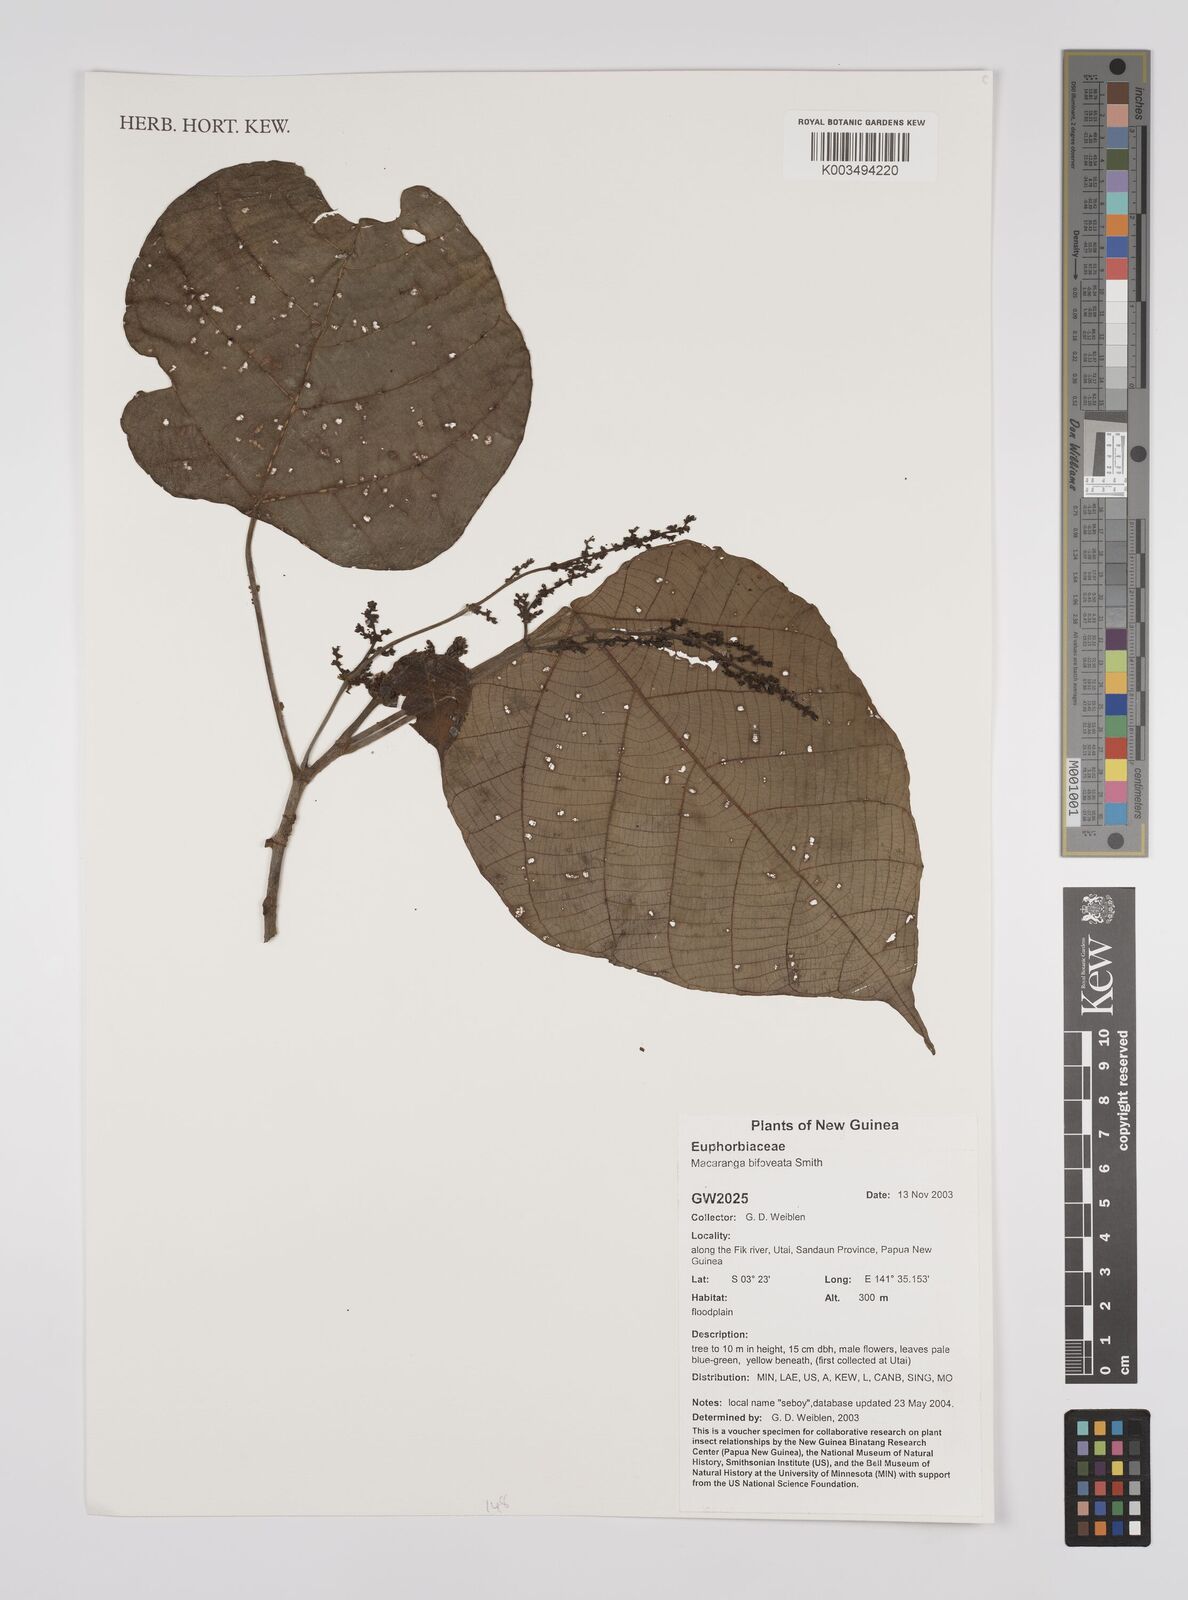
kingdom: Plantae
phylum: Tracheophyta
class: Magnoliopsida
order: Malpighiales
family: Euphorbiaceae
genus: Macaranga
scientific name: Macaranga bifoveata
